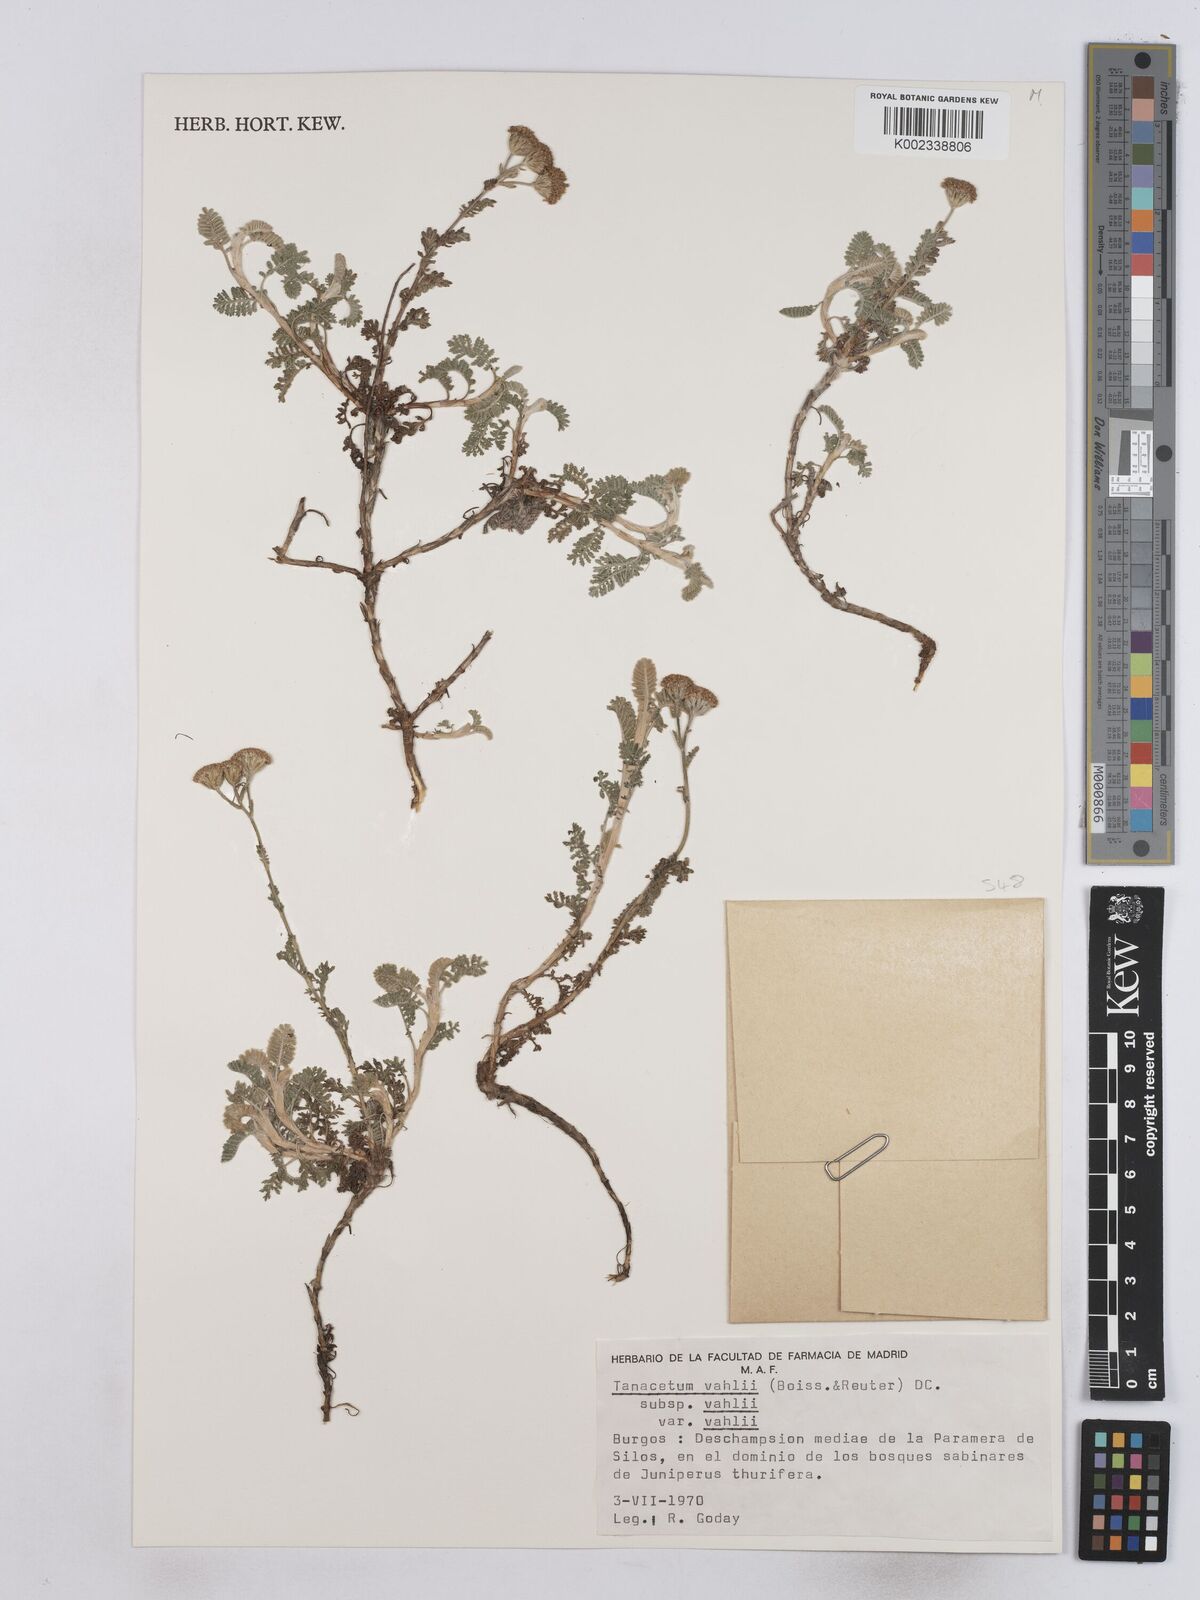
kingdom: Plantae
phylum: Tracheophyta
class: Magnoliopsida
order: Asterales
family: Asteraceae
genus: Tanacetum
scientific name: Tanacetum vahlii
